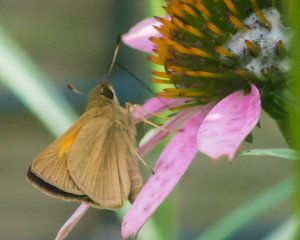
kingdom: Animalia
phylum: Arthropoda
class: Insecta
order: Lepidoptera
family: Hesperiidae
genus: Poanes
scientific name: Poanes viator
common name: Broad-winged Skipper
